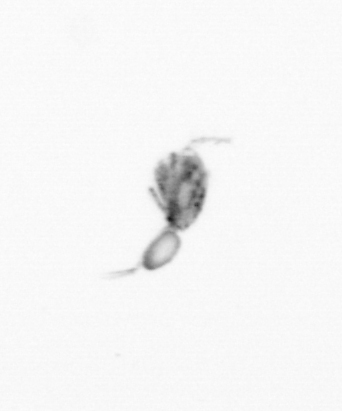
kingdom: Animalia
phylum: Arthropoda
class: Copepoda
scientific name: Copepoda
